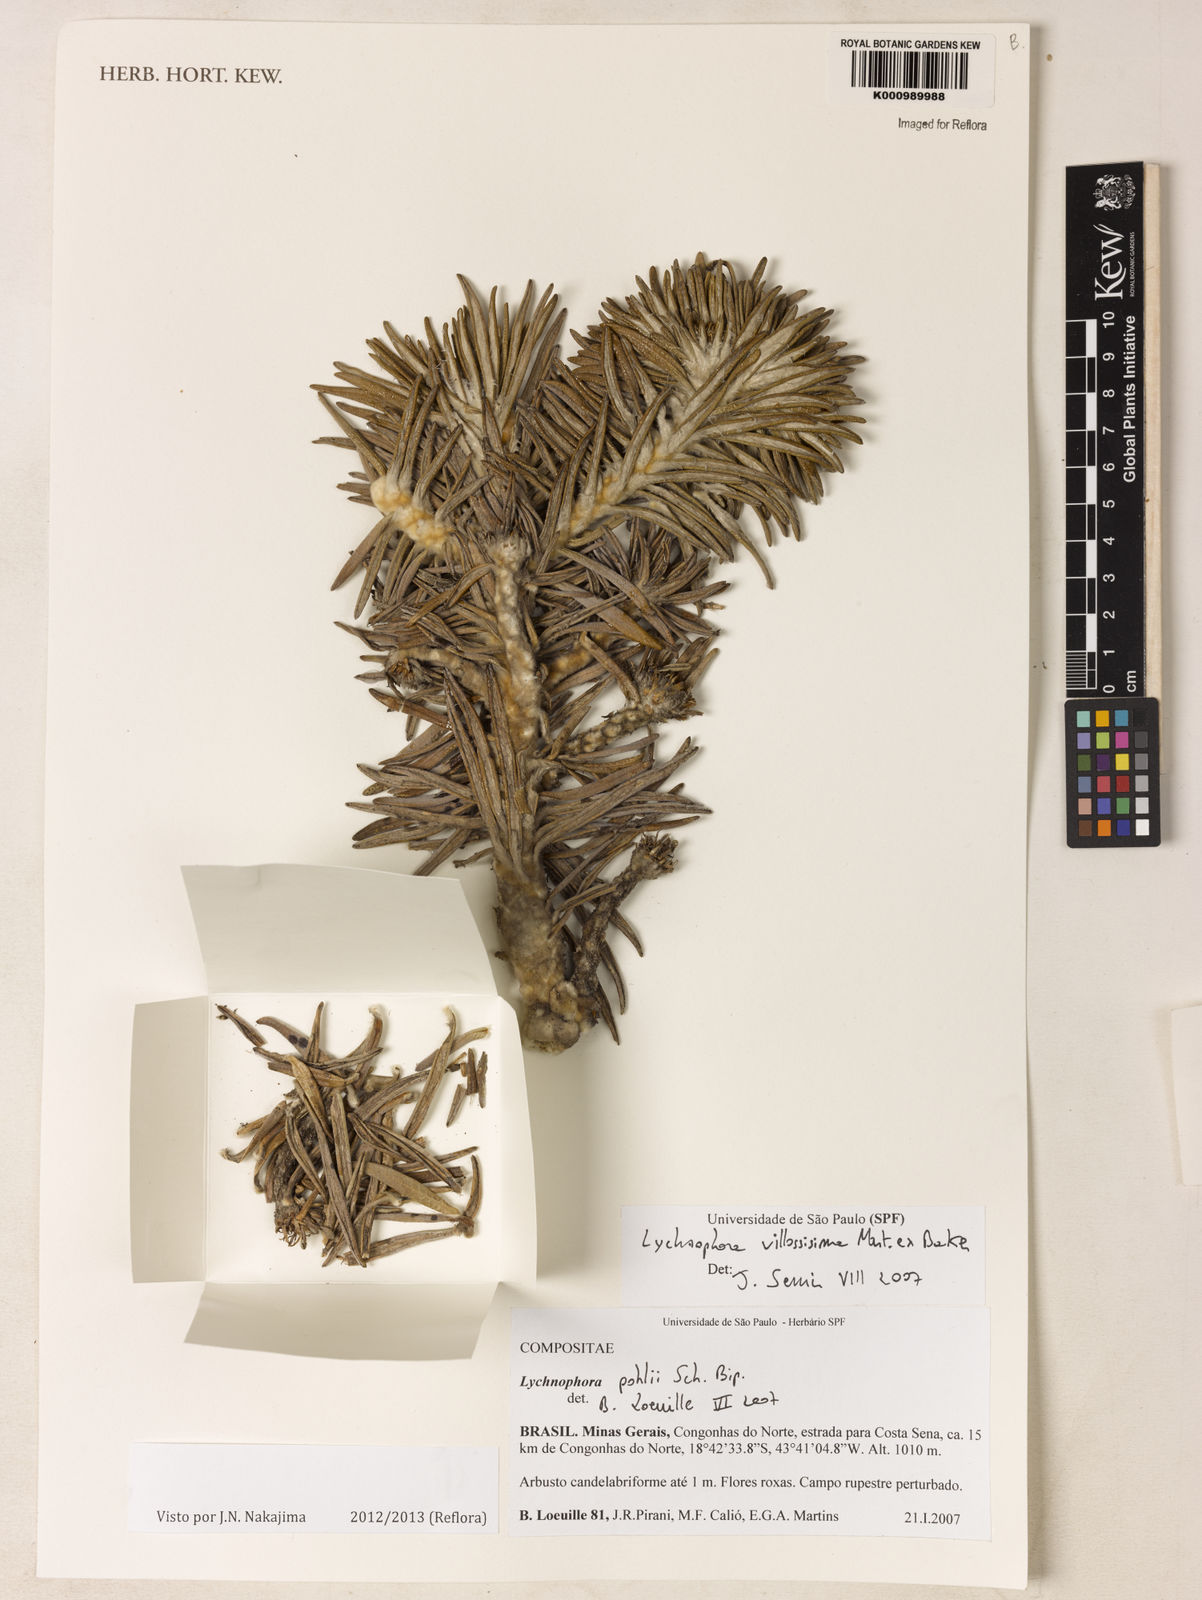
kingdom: Plantae
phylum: Tracheophyta
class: Magnoliopsida
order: Asterales
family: Asteraceae
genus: Lychnophora
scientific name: Lychnophora villosissima
